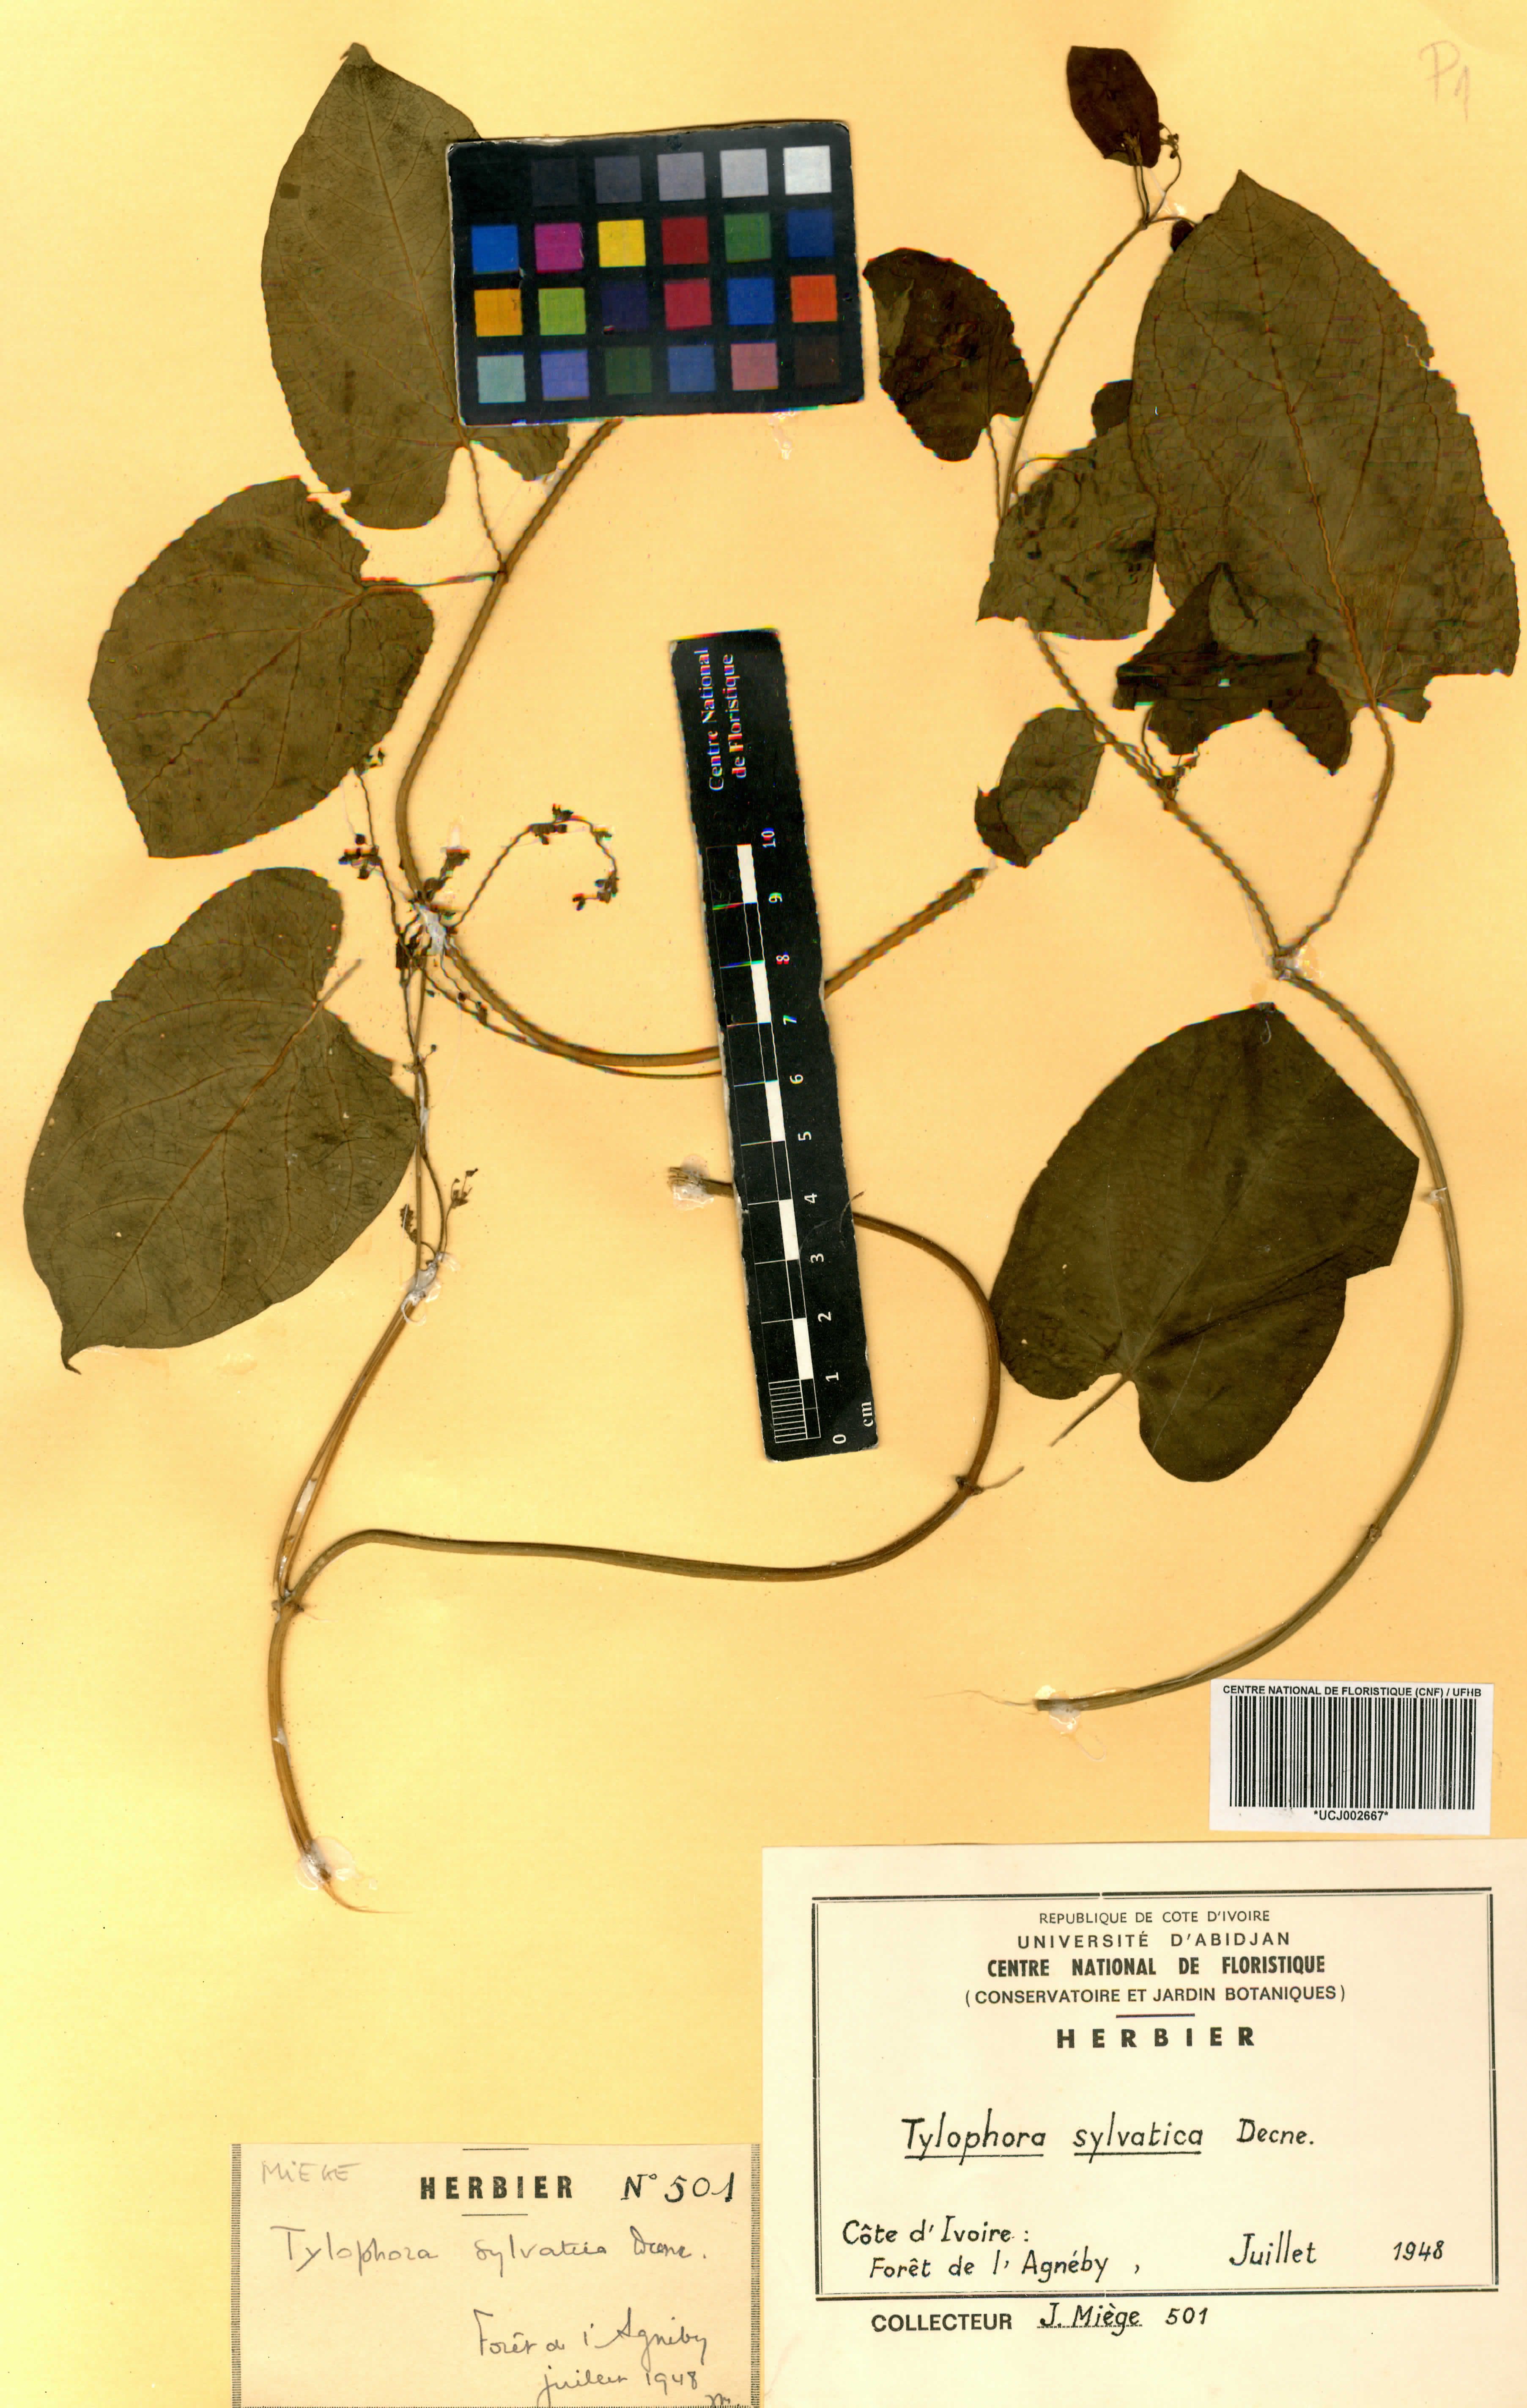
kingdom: Plantae
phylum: Tracheophyta
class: Magnoliopsida
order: Gentianales
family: Apocynaceae
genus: Vincetoxicum
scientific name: Vincetoxicum sylvaticum
